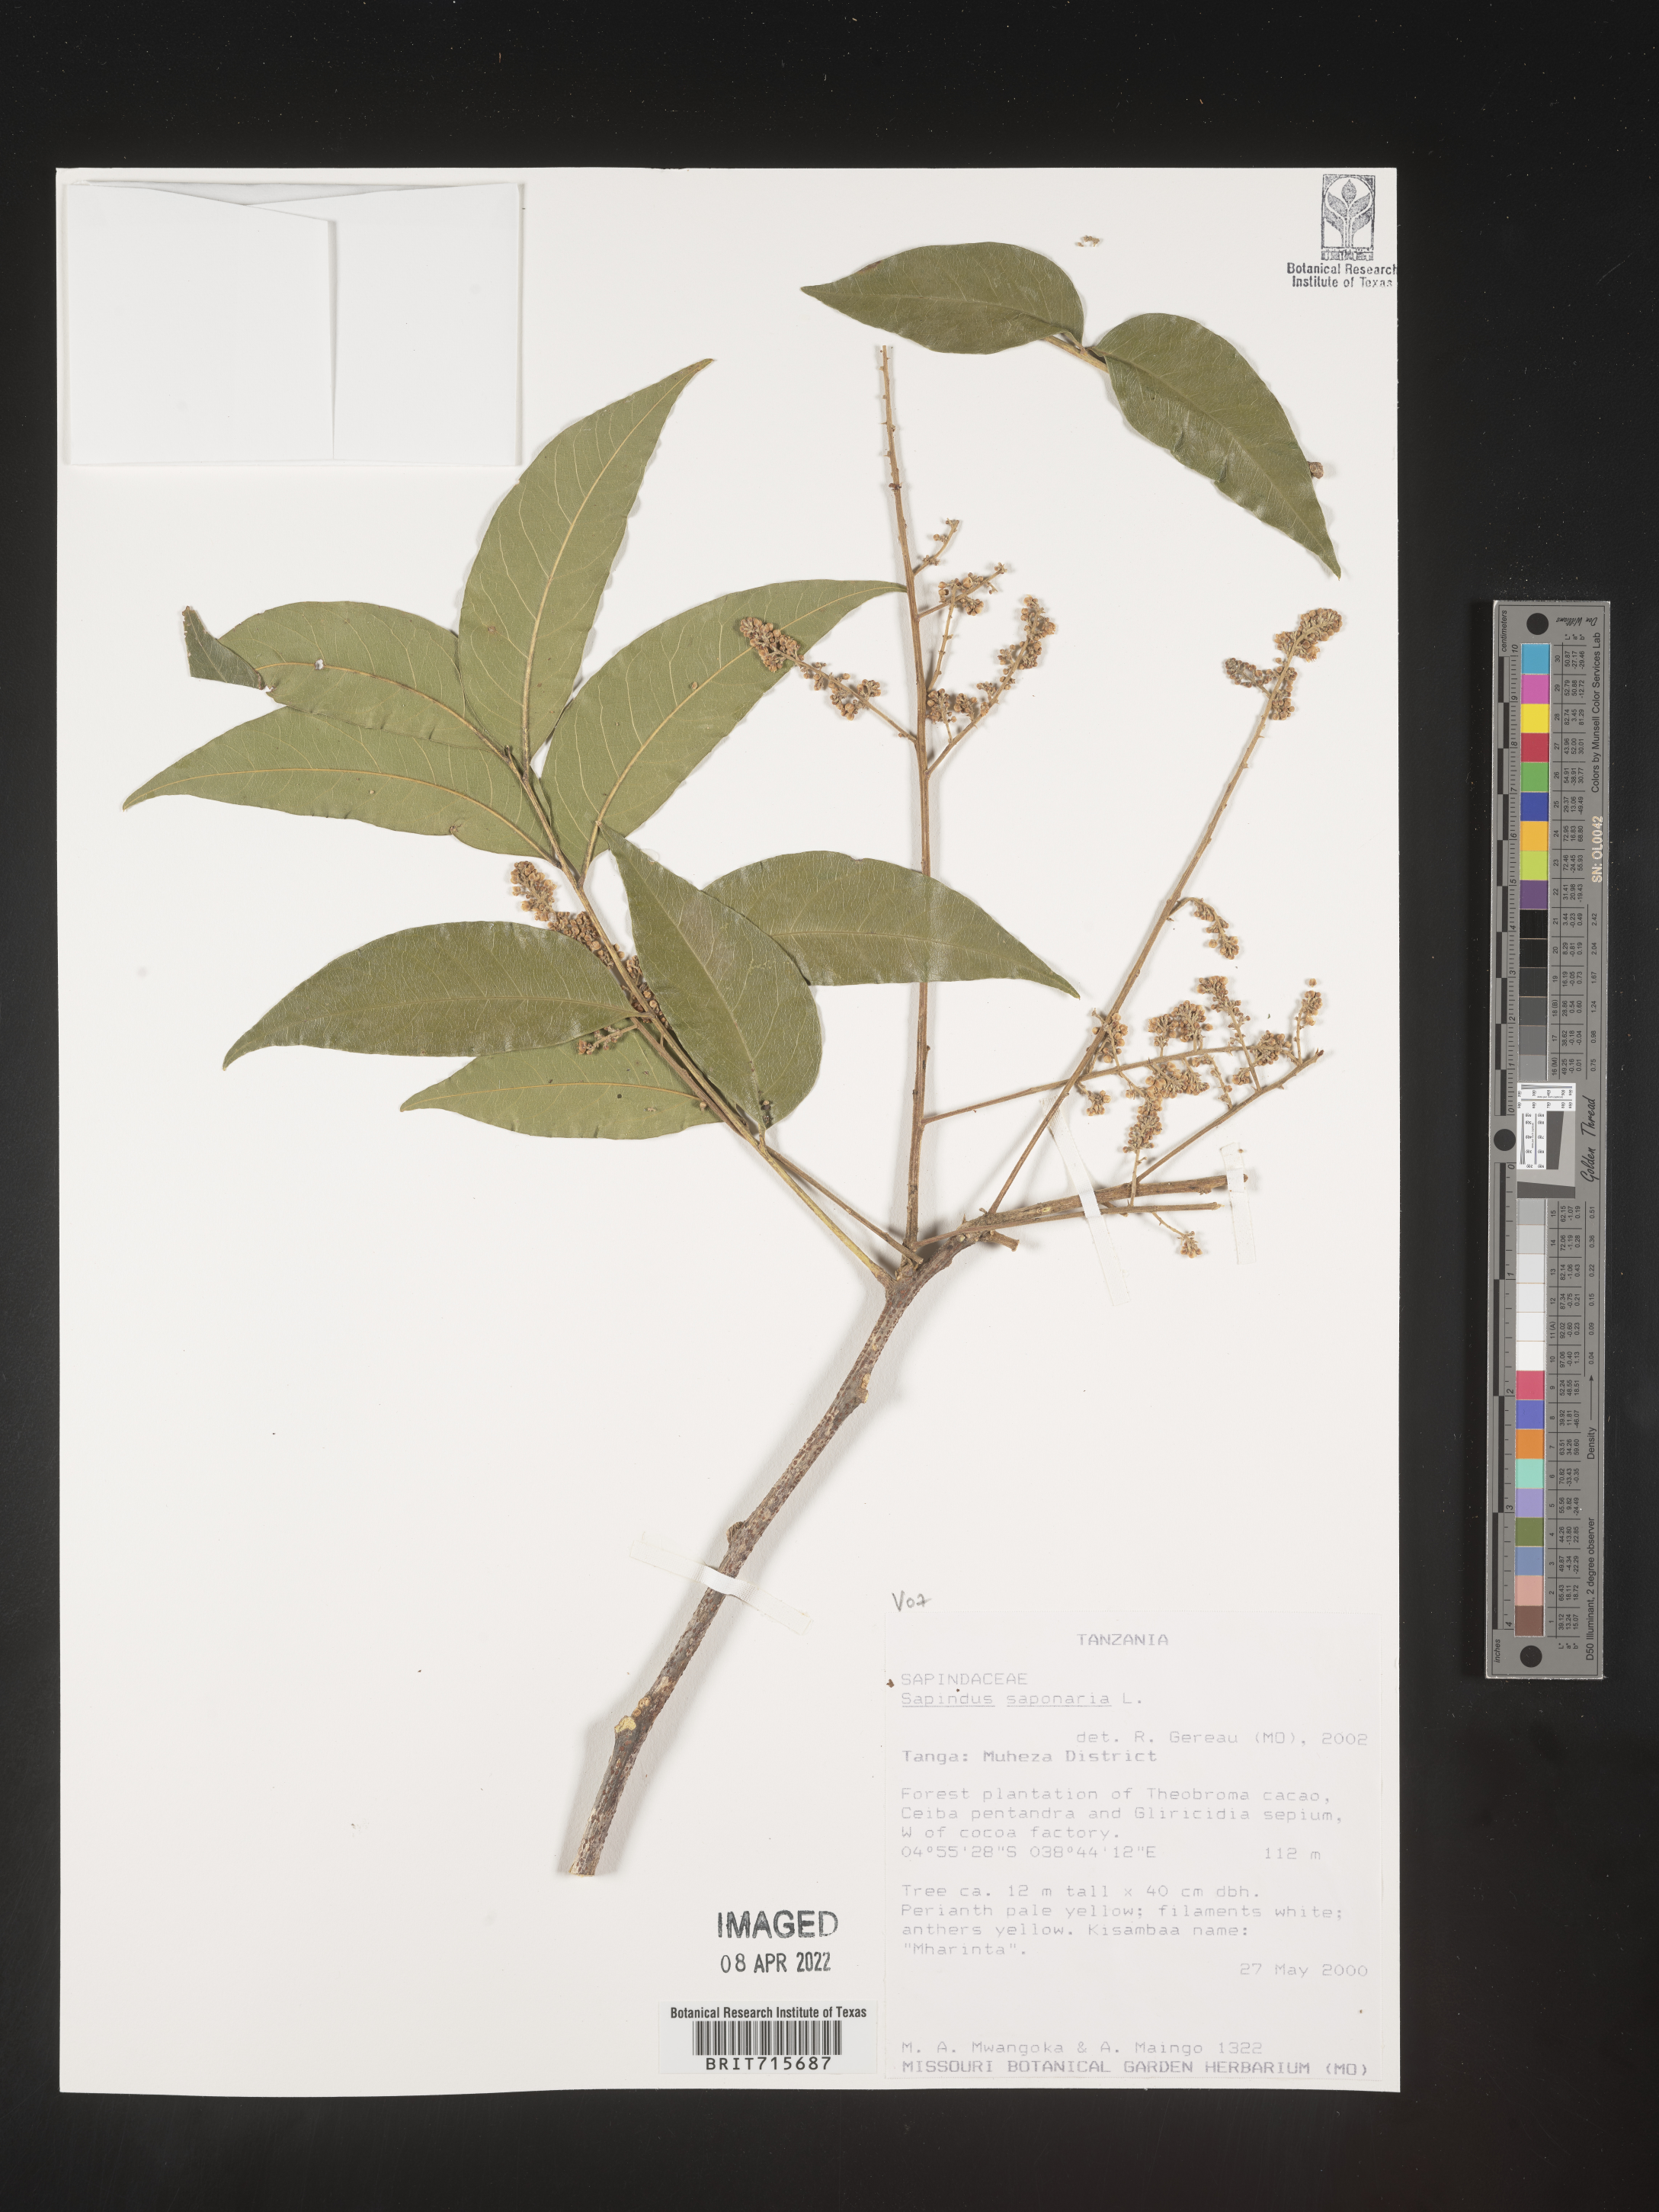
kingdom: Plantae
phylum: Tracheophyta
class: Magnoliopsida
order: Sapindales
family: Sapindaceae
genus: Sapindus
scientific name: Sapindus saponaria
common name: Wingleaf soapberry
